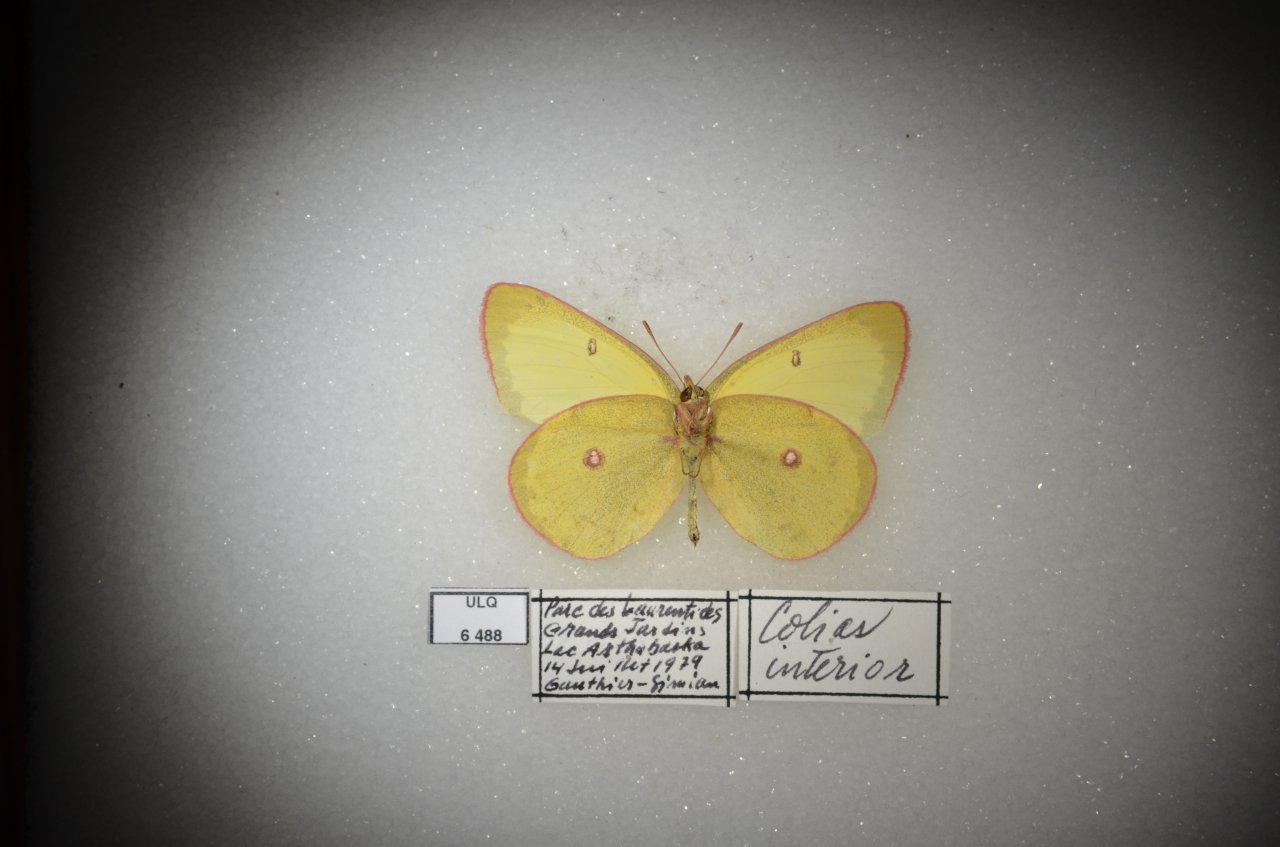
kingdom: Animalia
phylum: Arthropoda
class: Insecta
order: Lepidoptera
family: Pieridae
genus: Colias
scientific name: Colias interior
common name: Pink-edged Sulphur
